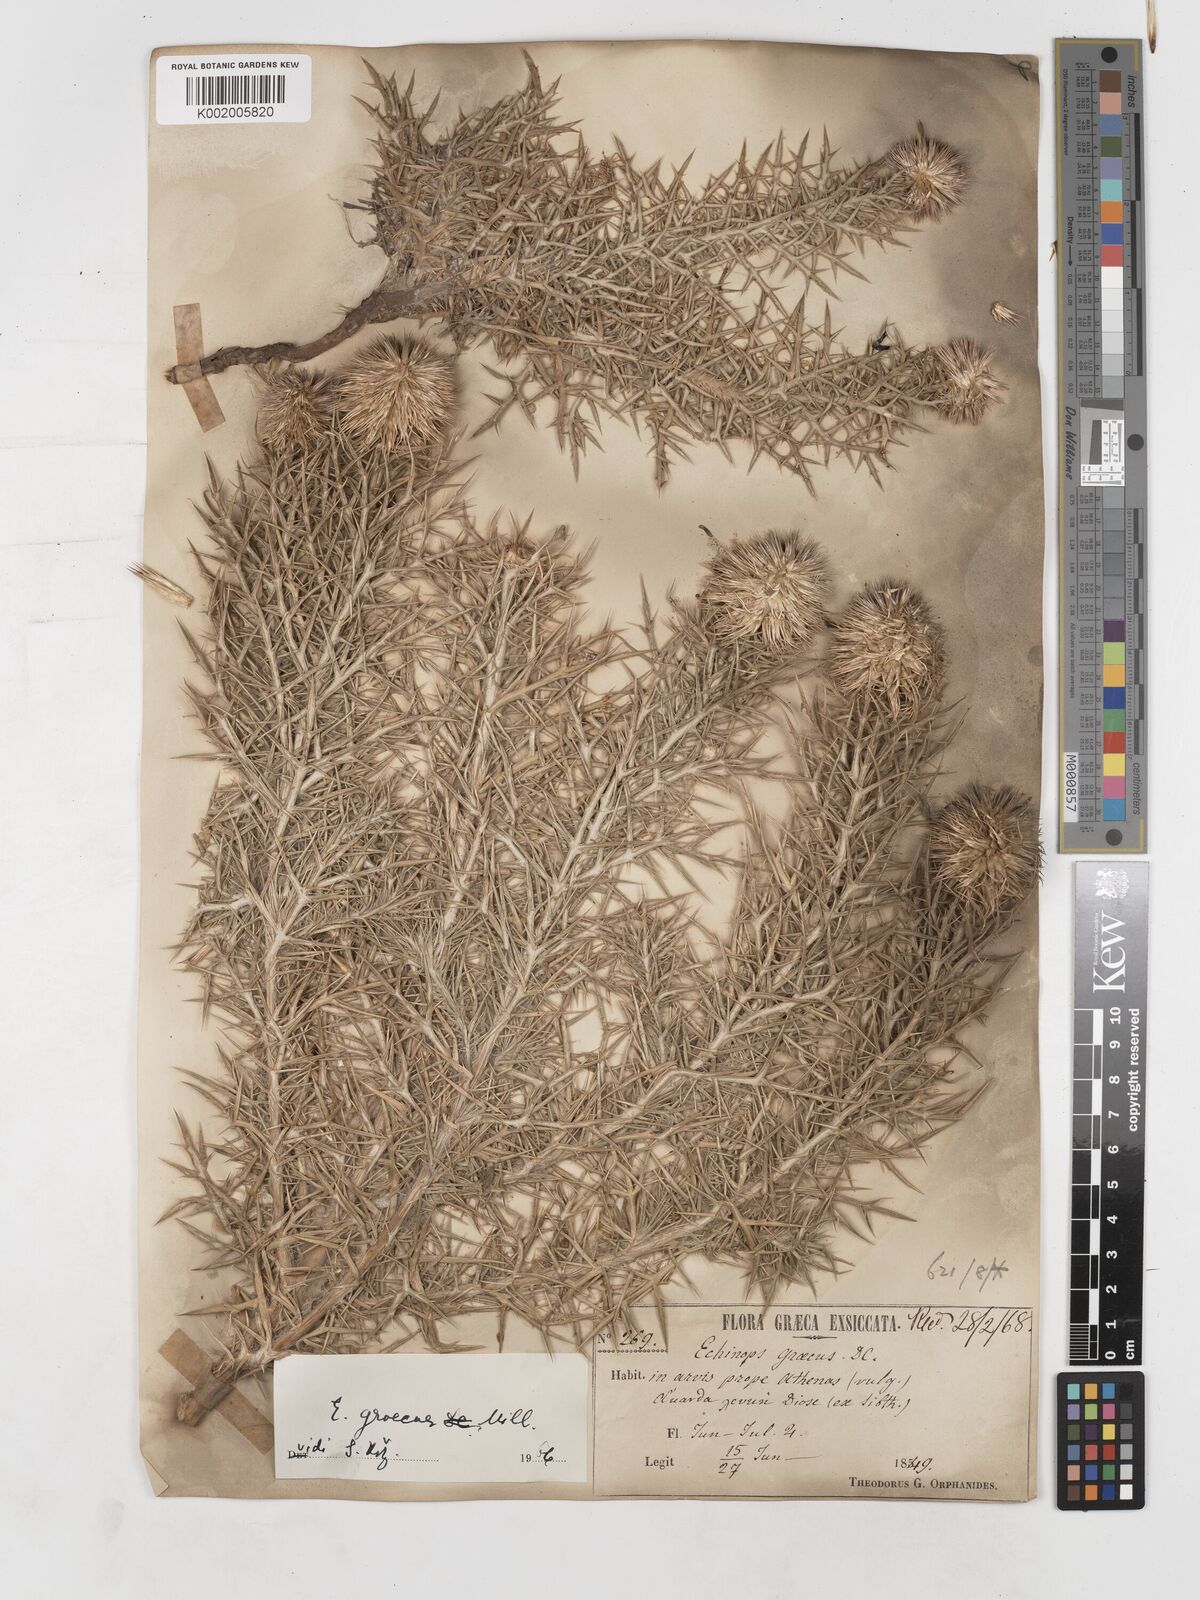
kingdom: Plantae
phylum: Tracheophyta
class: Magnoliopsida
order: Asterales
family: Asteraceae
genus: Echinops
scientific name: Echinops graecus
